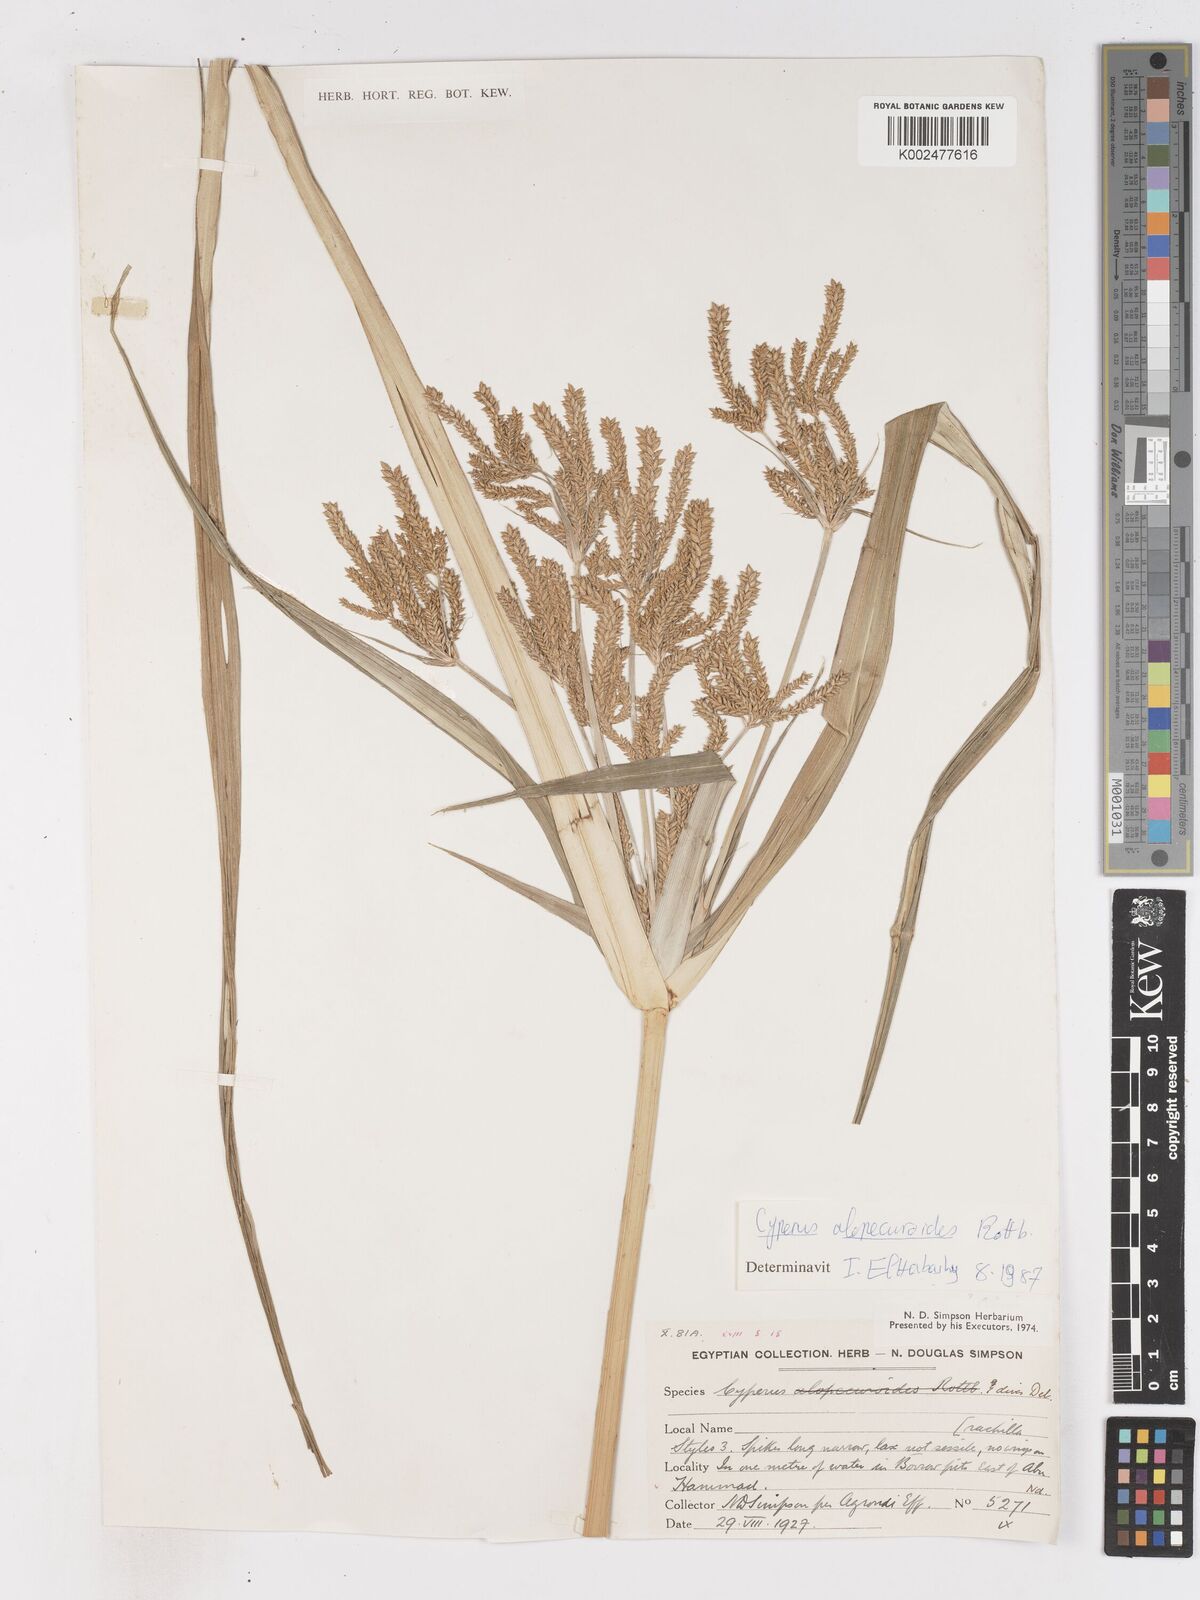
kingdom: Plantae
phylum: Tracheophyta
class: Liliopsida
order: Poales
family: Cyperaceae
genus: Cyperus
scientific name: Cyperus dives
